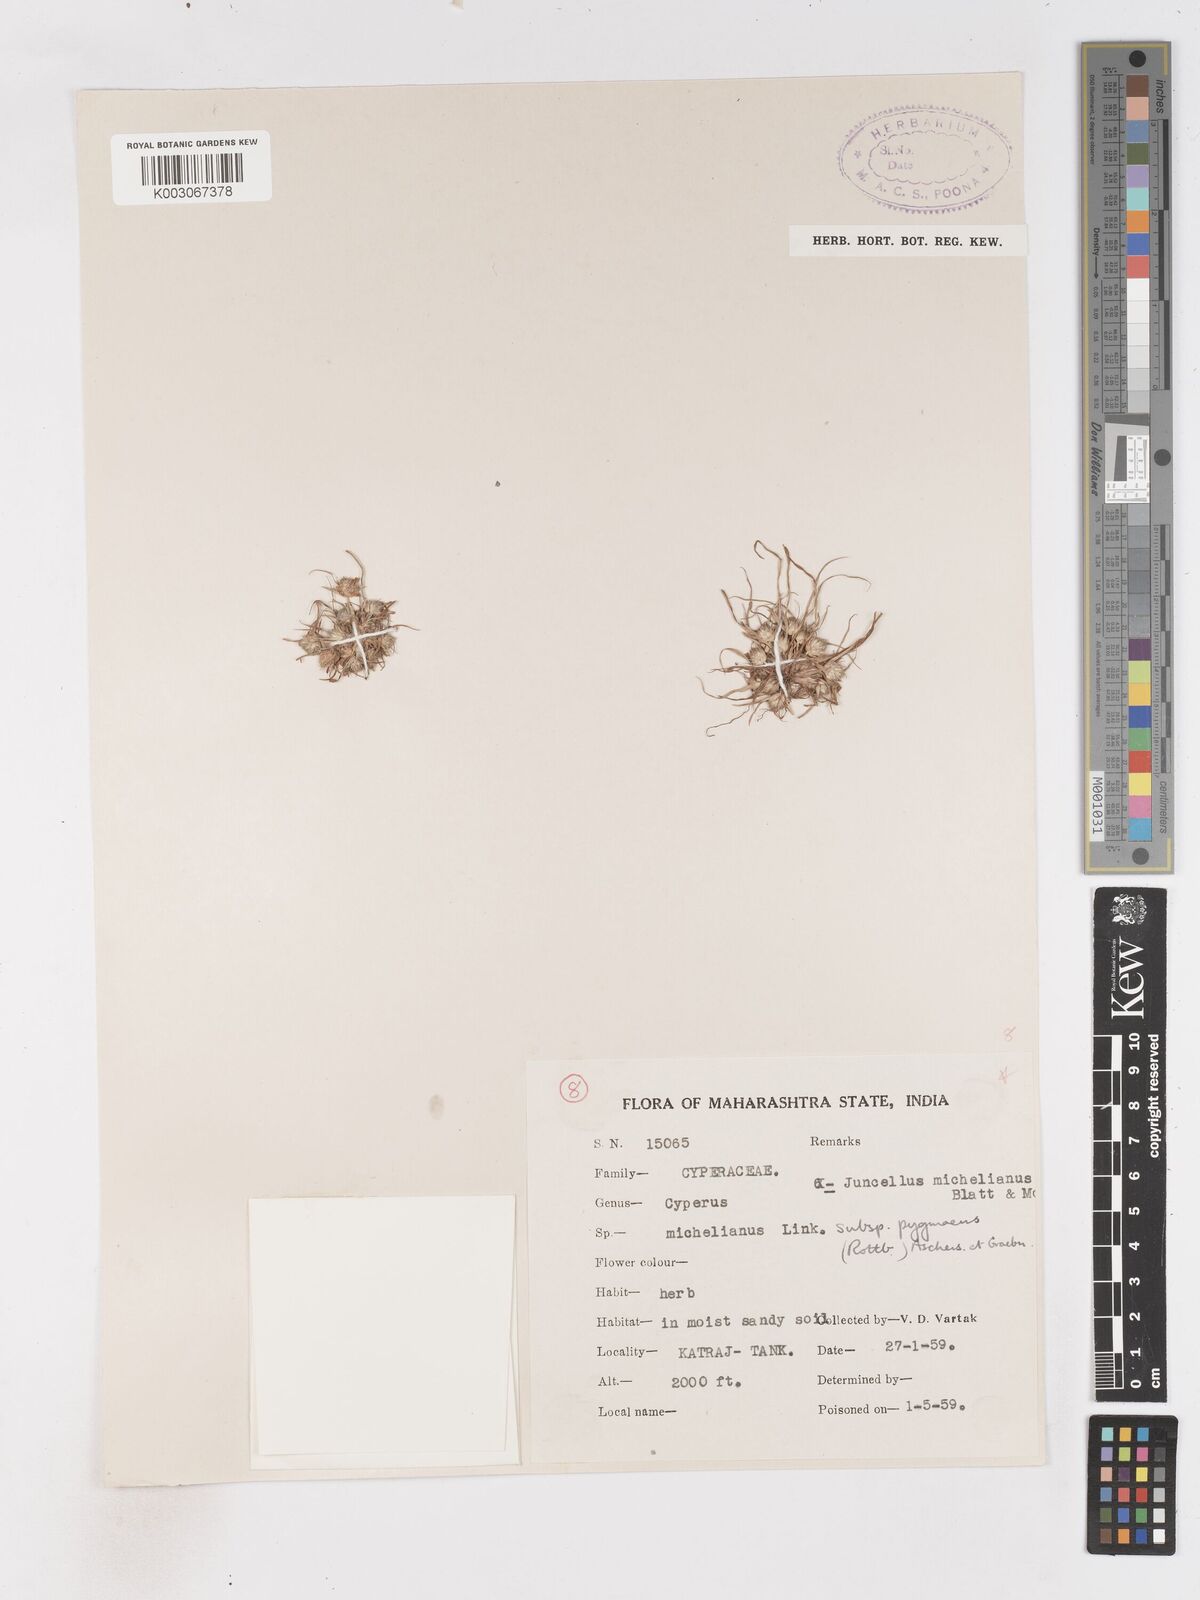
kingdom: Plantae
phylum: Tracheophyta
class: Liliopsida
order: Poales
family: Cyperaceae
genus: Cyperus
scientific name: Cyperus michelianus
